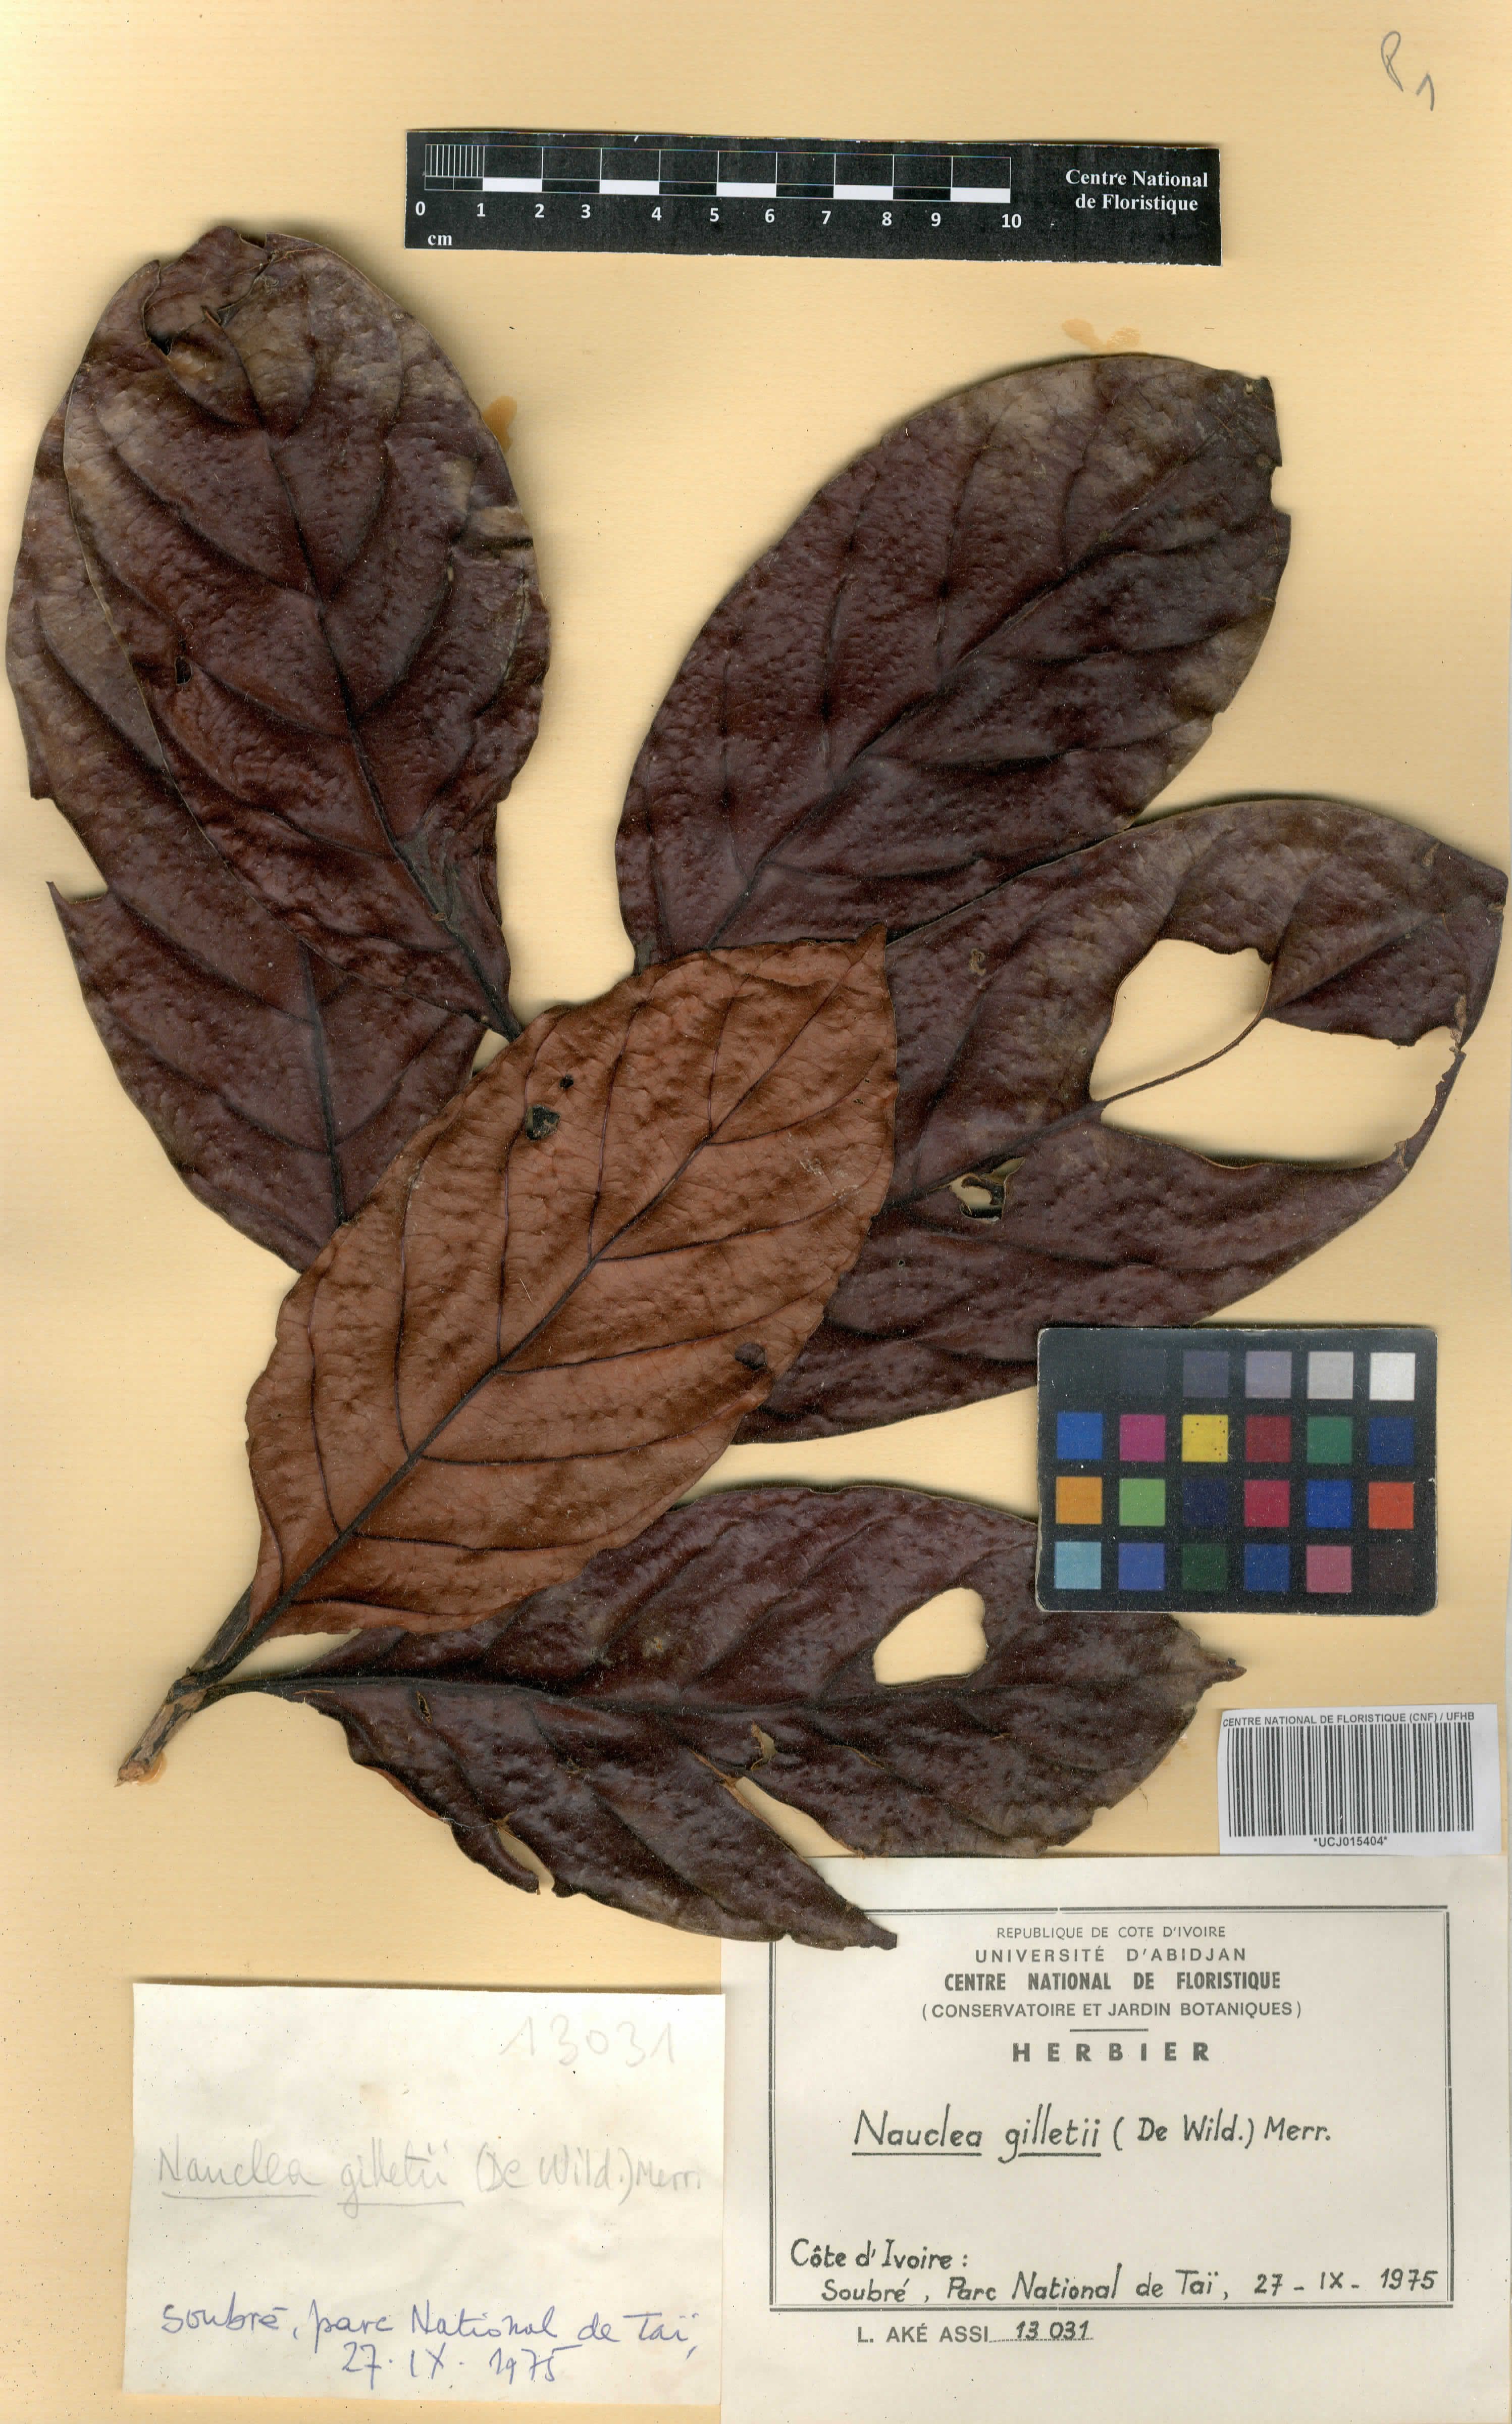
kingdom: Plantae
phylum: Tracheophyta
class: Magnoliopsida
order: Gentianales
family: Rubiaceae
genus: Nauclea
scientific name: Nauclea gilletii
